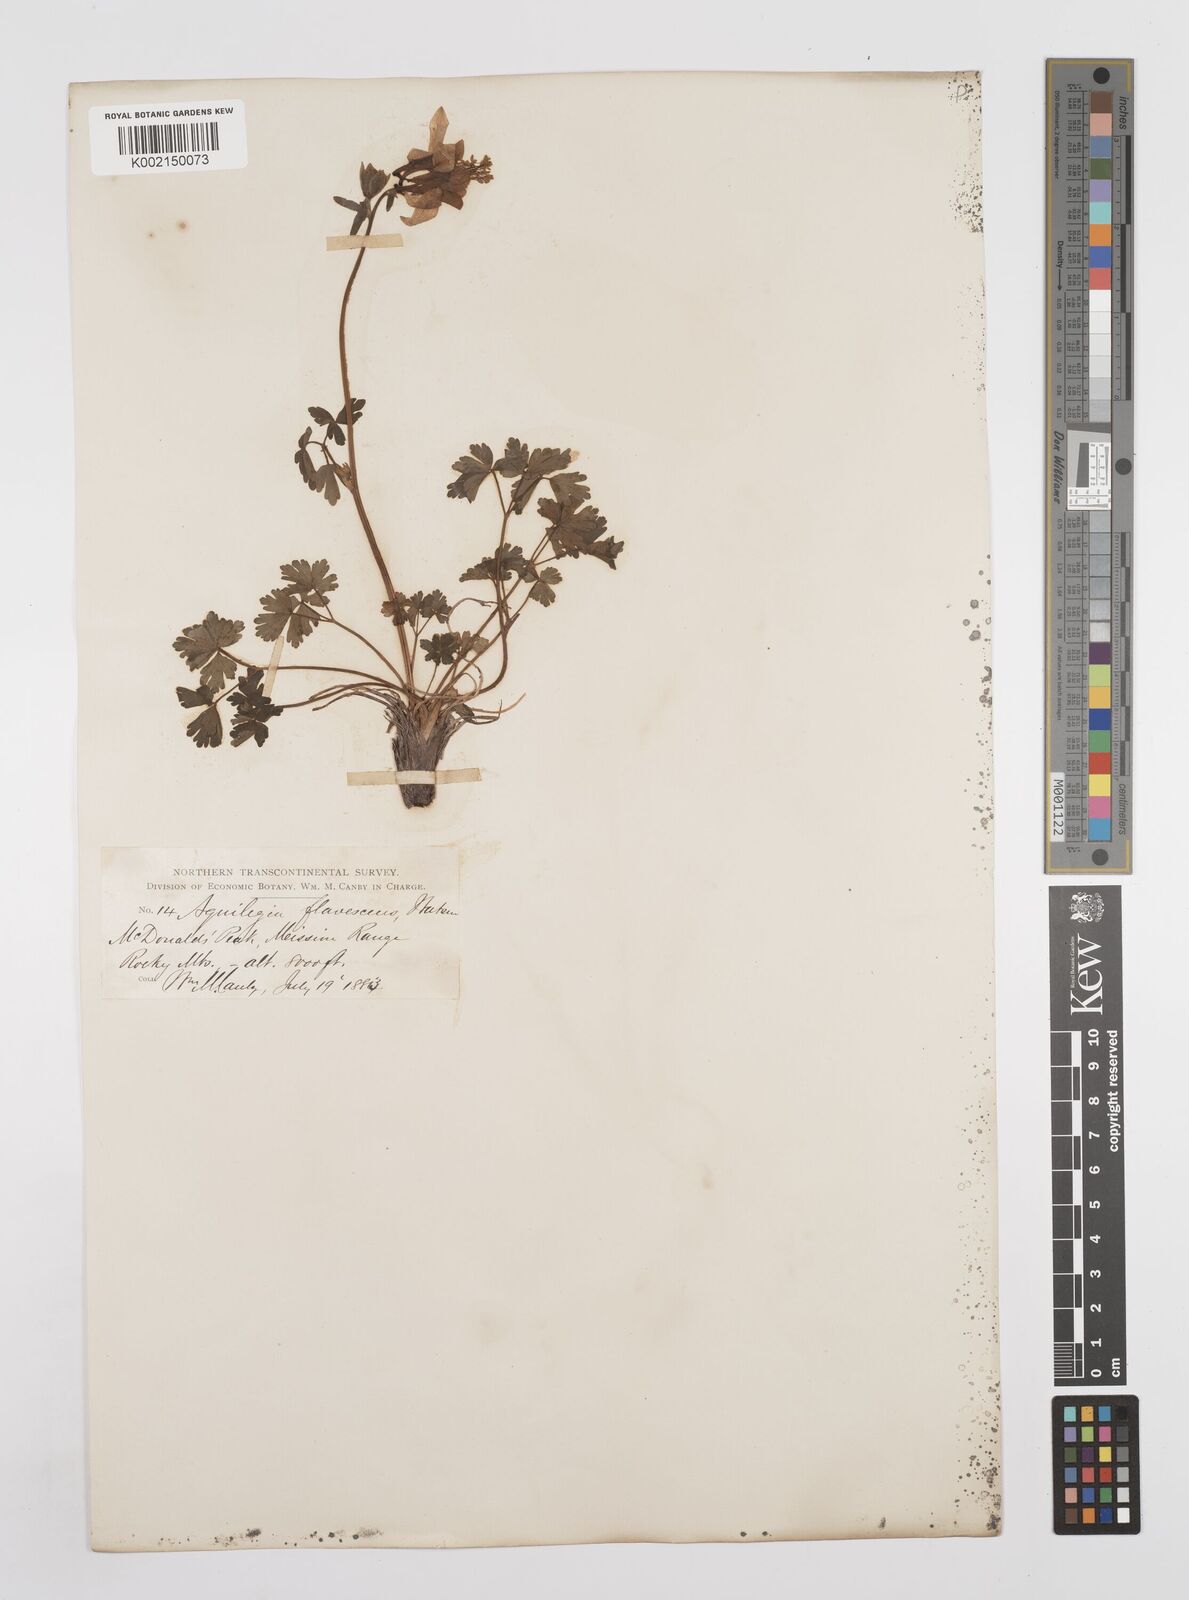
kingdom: Plantae
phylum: Tracheophyta
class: Magnoliopsida
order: Ranunculales
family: Ranunculaceae
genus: Aquilegia
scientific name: Aquilegia flavescens
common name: Yellow columbine
